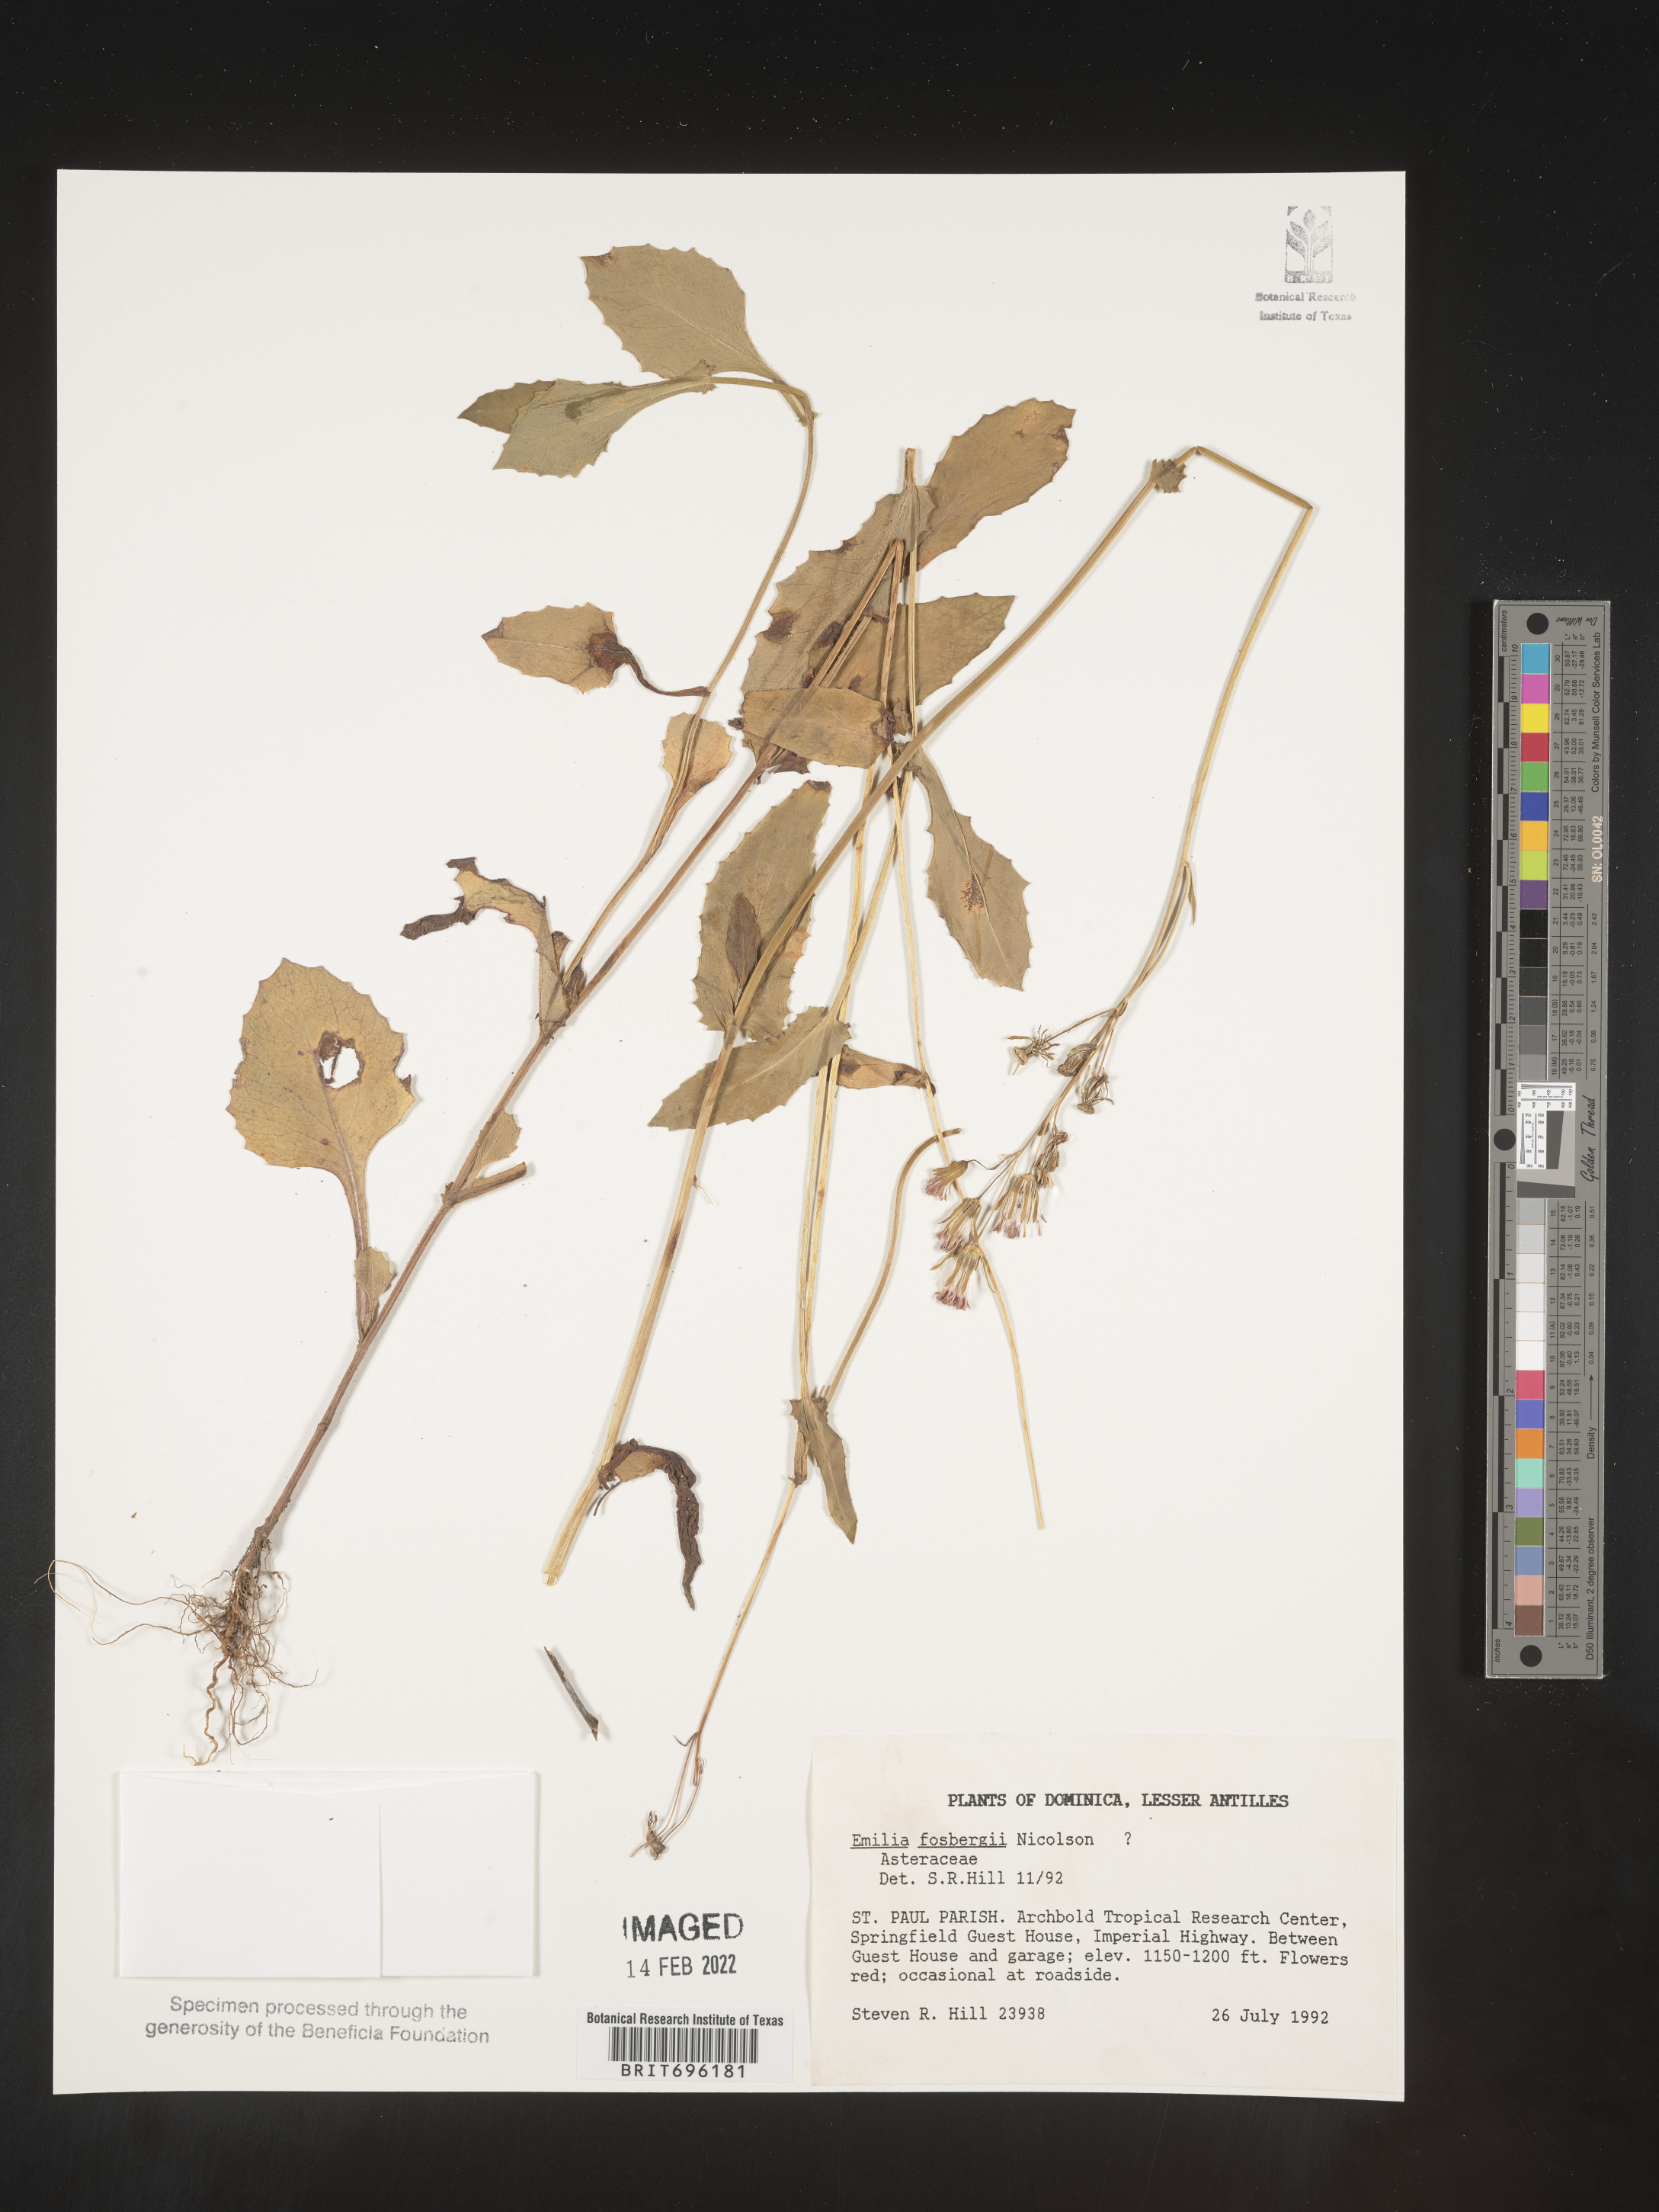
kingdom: Plantae
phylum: Tracheophyta
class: Magnoliopsida
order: Asterales
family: Asteraceae
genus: Emilia
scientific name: Emilia
